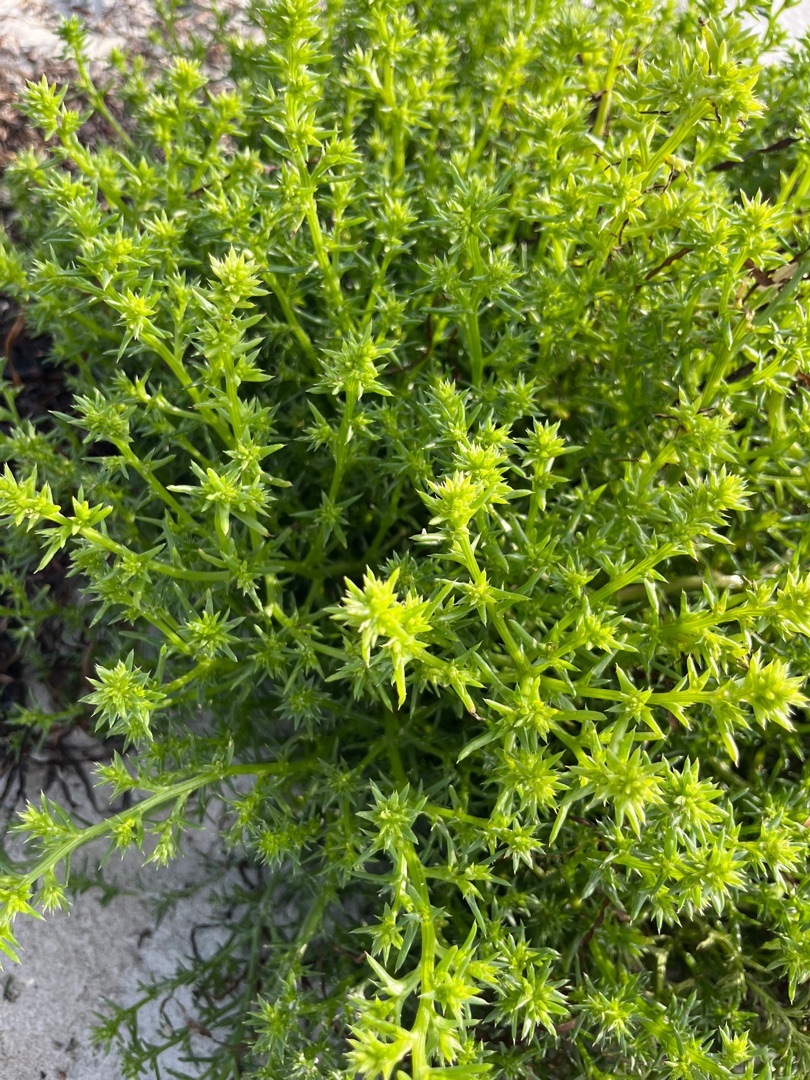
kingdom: Plantae
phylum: Tracheophyta
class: Magnoliopsida
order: Caryophyllales
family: Amaranthaceae
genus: Salsola
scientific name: Salsola kali
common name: Sodaurt
